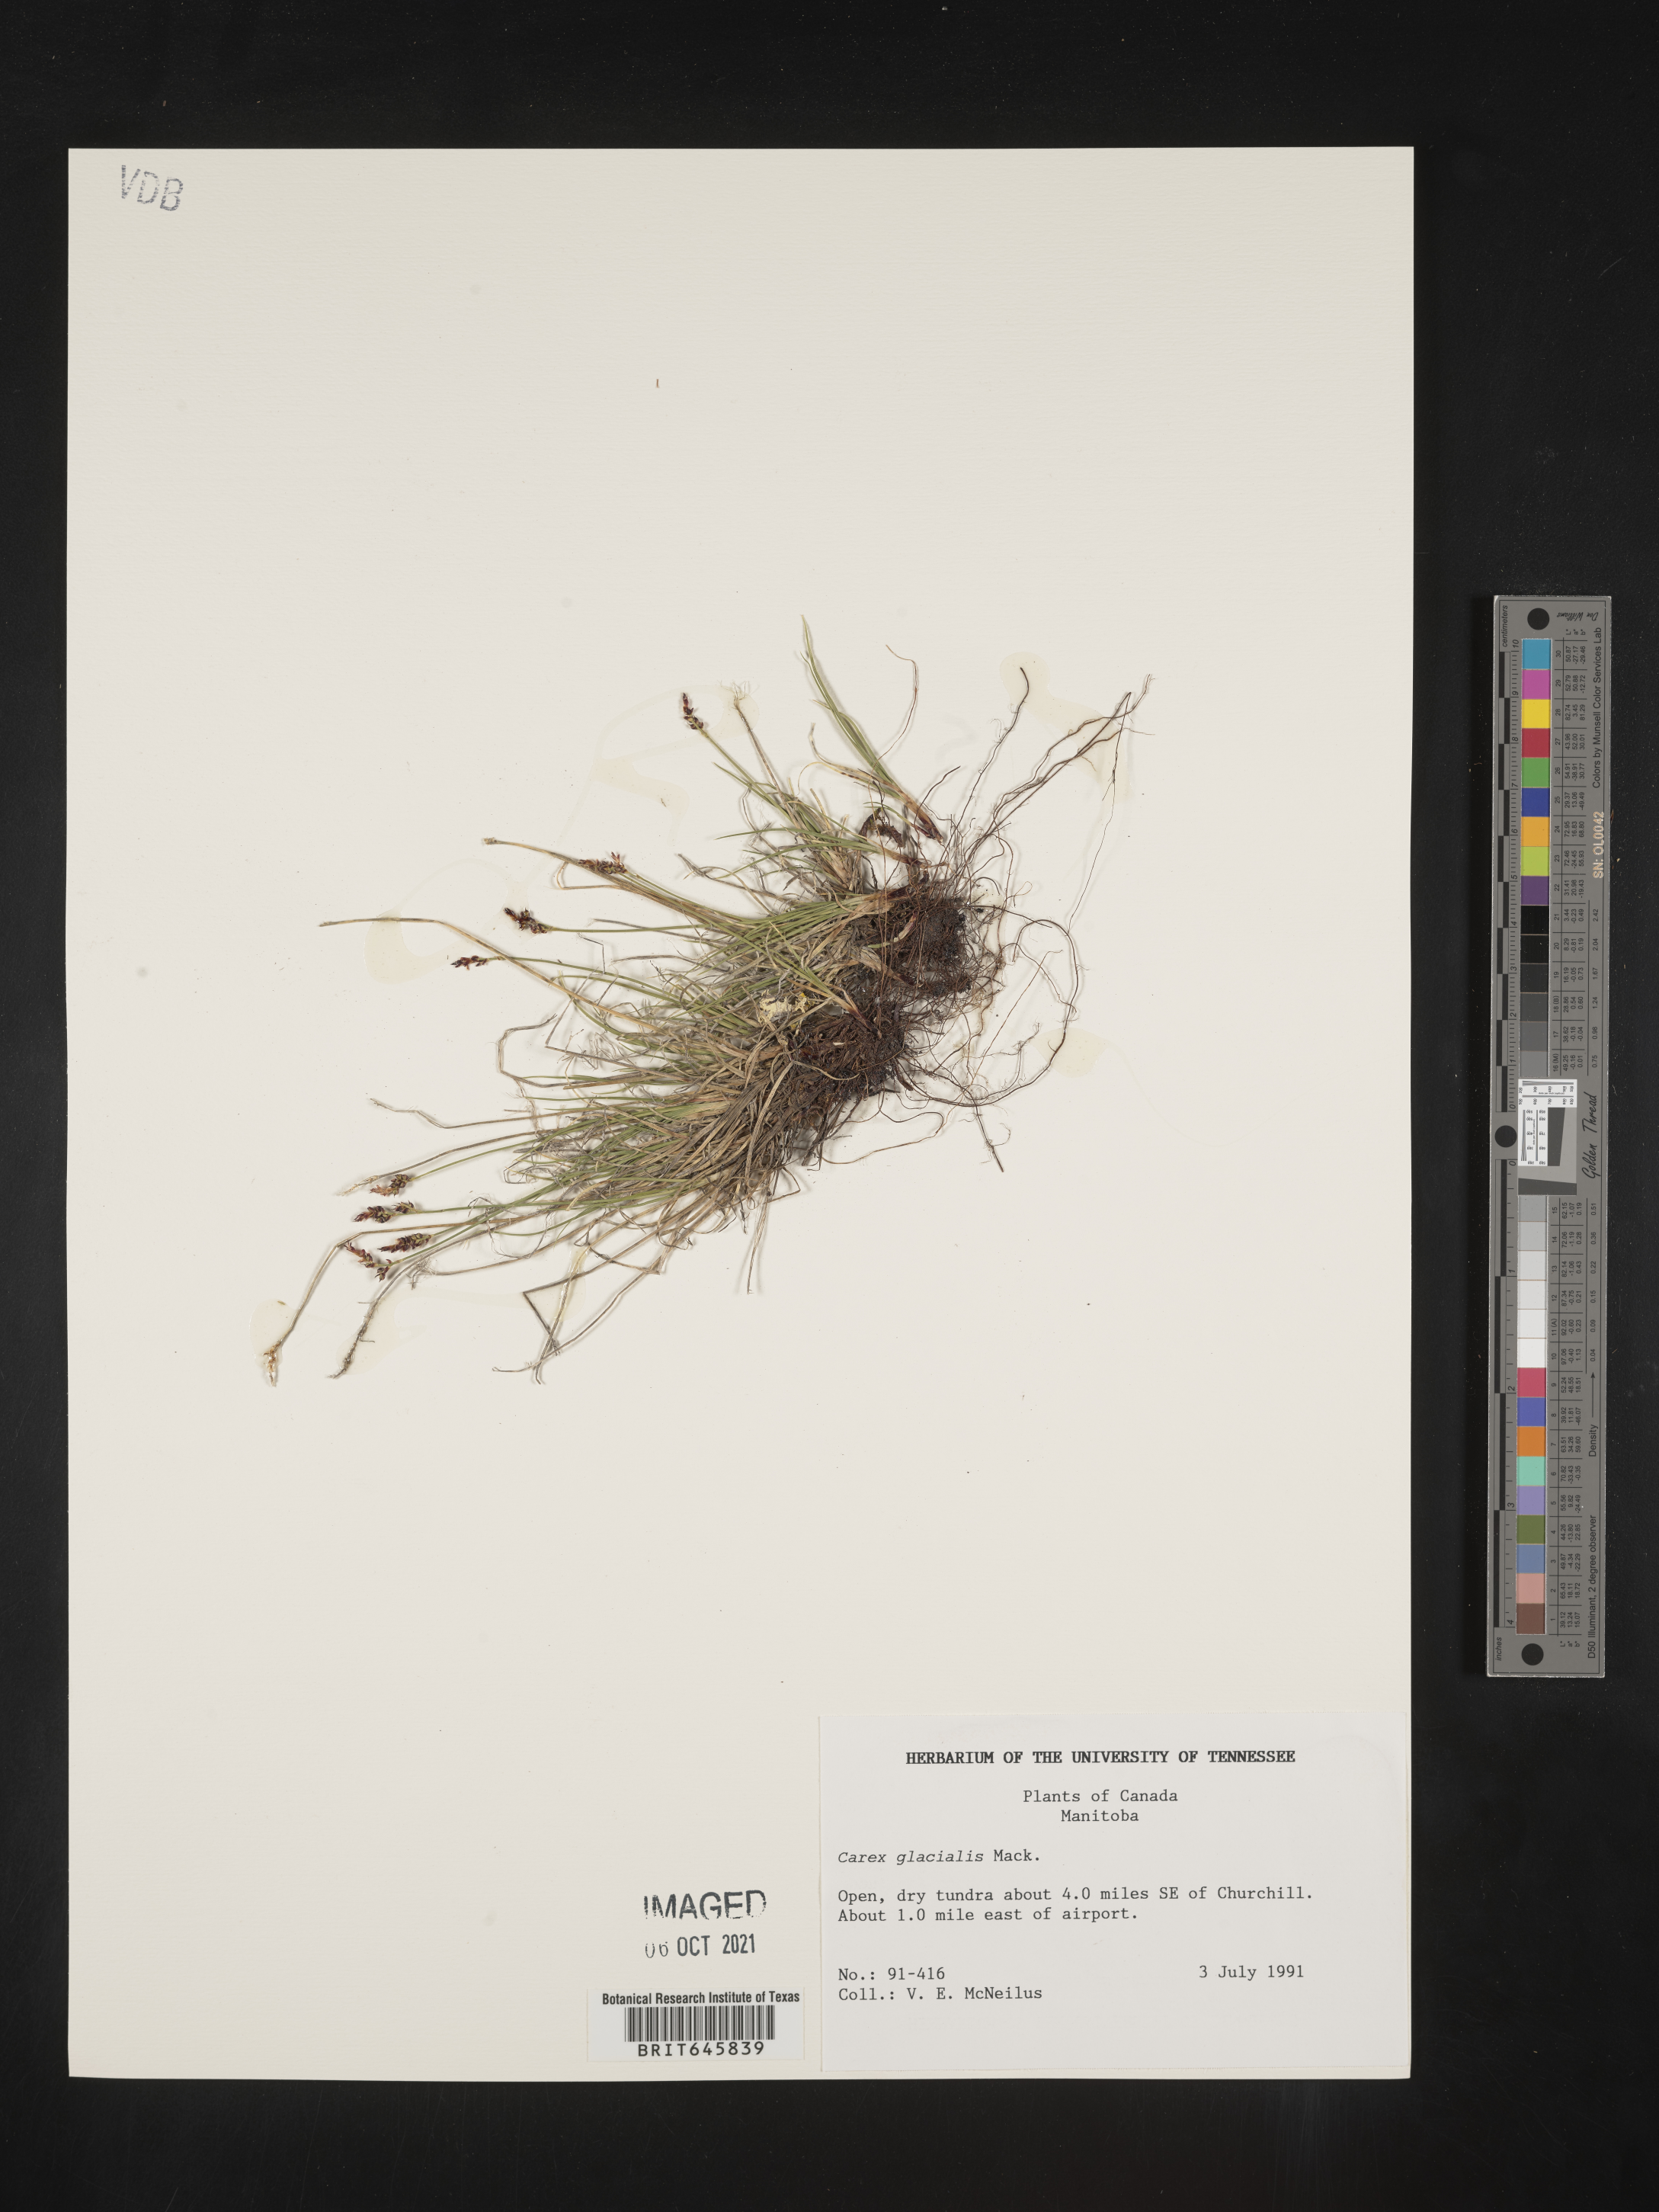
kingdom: Plantae
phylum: Tracheophyta
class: Liliopsida
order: Poales
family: Cyperaceae
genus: Carex
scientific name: Carex glacialis
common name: Newfoundland sedge
